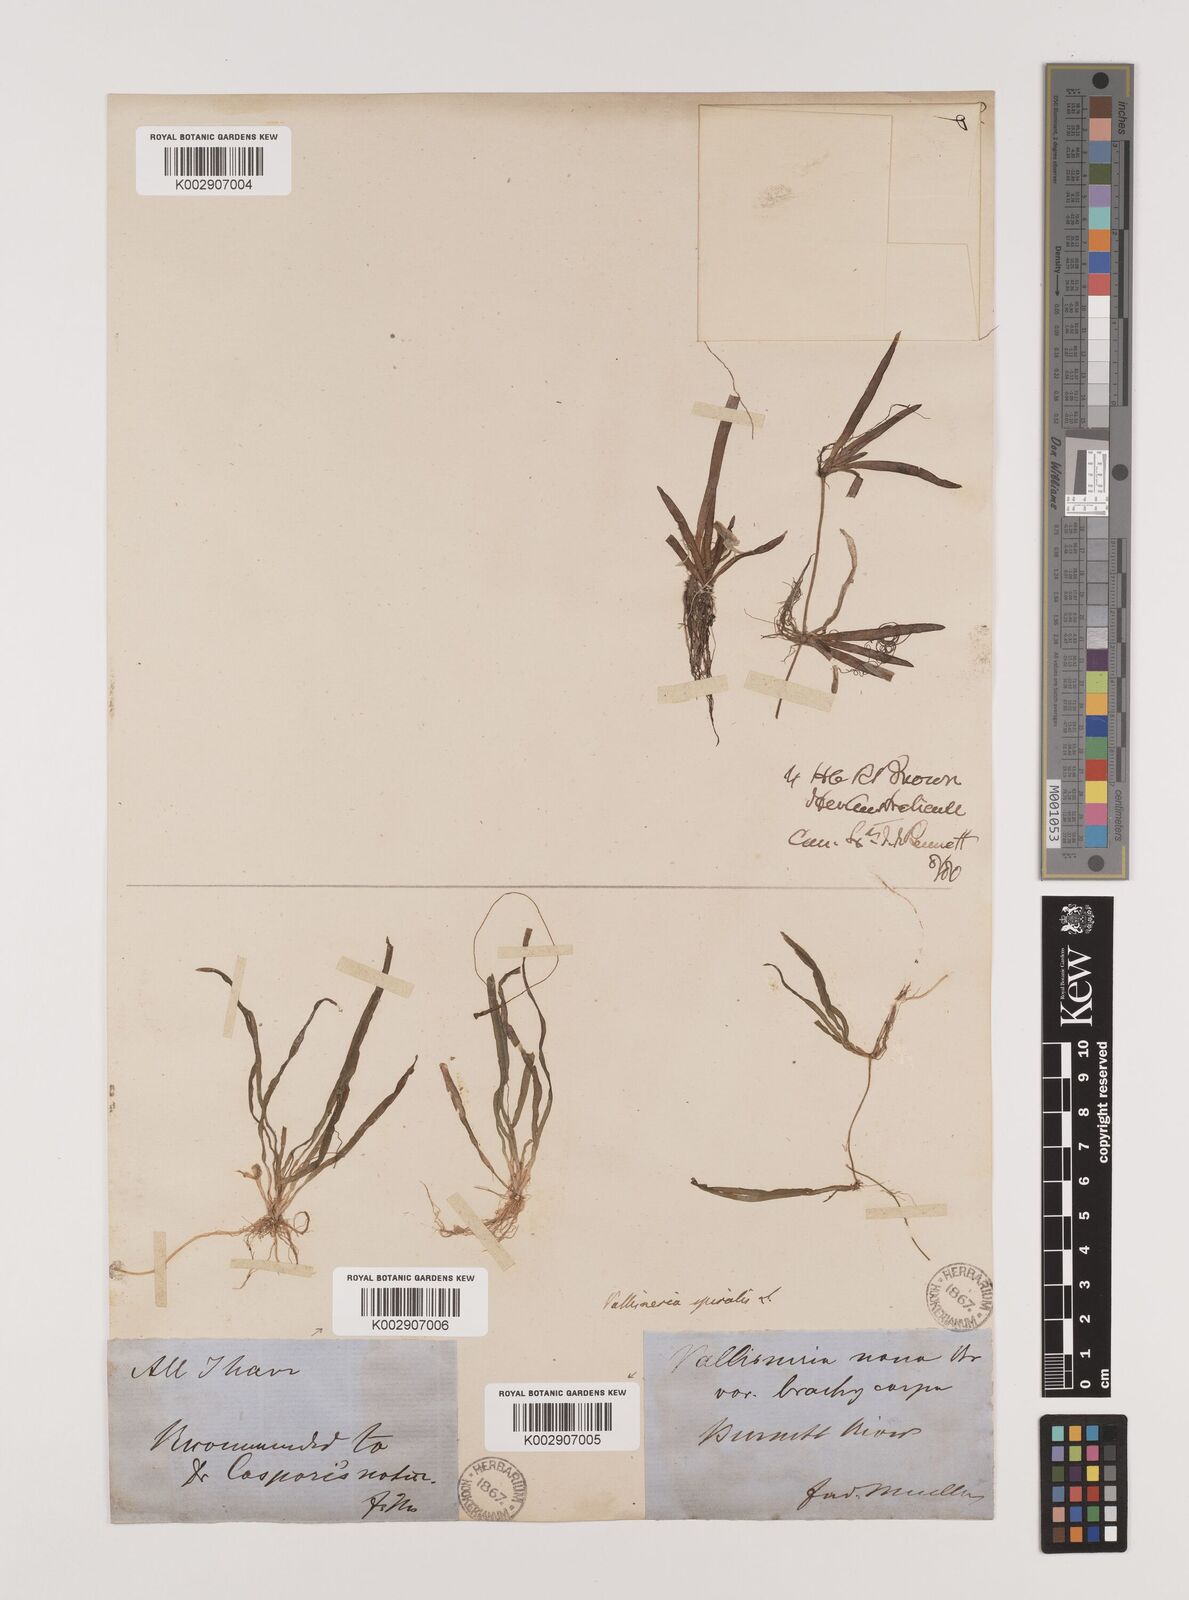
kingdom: Plantae
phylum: Tracheophyta
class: Liliopsida
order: Alismatales
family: Hydrocharitaceae
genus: Vallisneria
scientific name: Vallisneria spiralis
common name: Tapegrass
